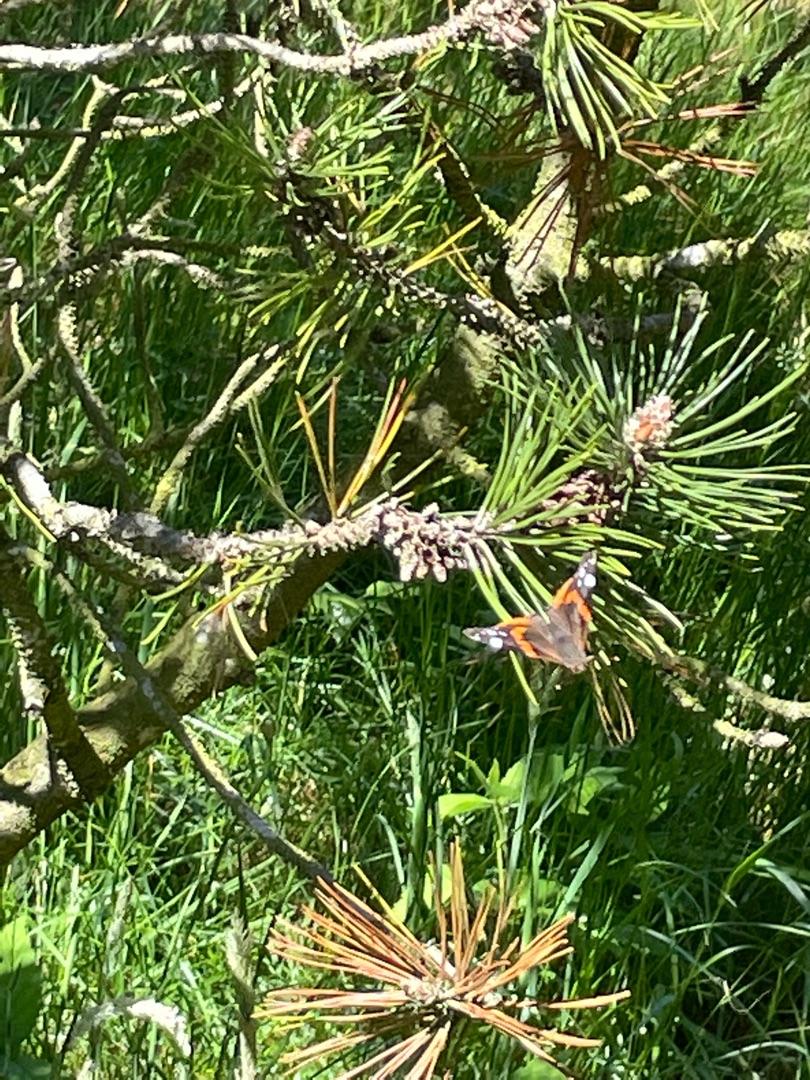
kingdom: Animalia
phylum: Arthropoda
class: Insecta
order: Lepidoptera
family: Nymphalidae
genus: Vanessa
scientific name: Vanessa atalanta
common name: Admiral
